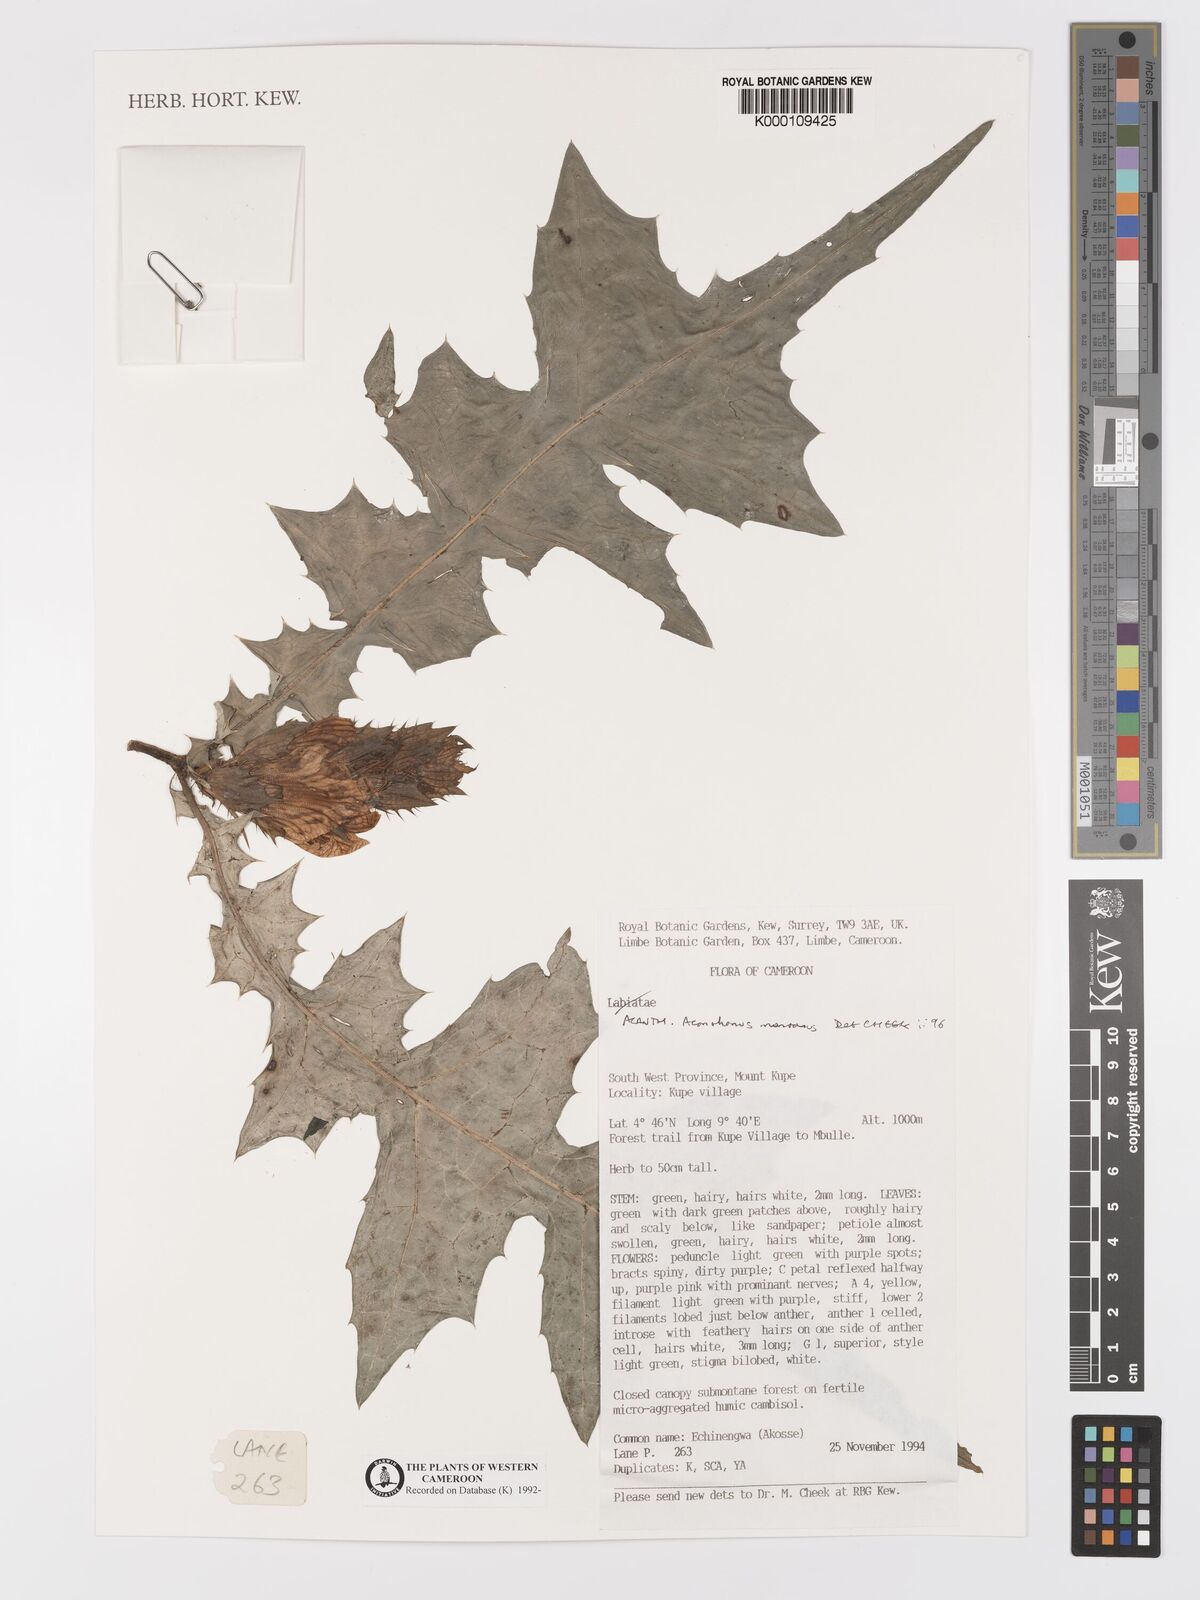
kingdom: Plantae
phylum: Tracheophyta
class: Magnoliopsida
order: Lamiales
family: Acanthaceae
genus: Acanthus
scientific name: Acanthus montanus
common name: Mountain thistle
